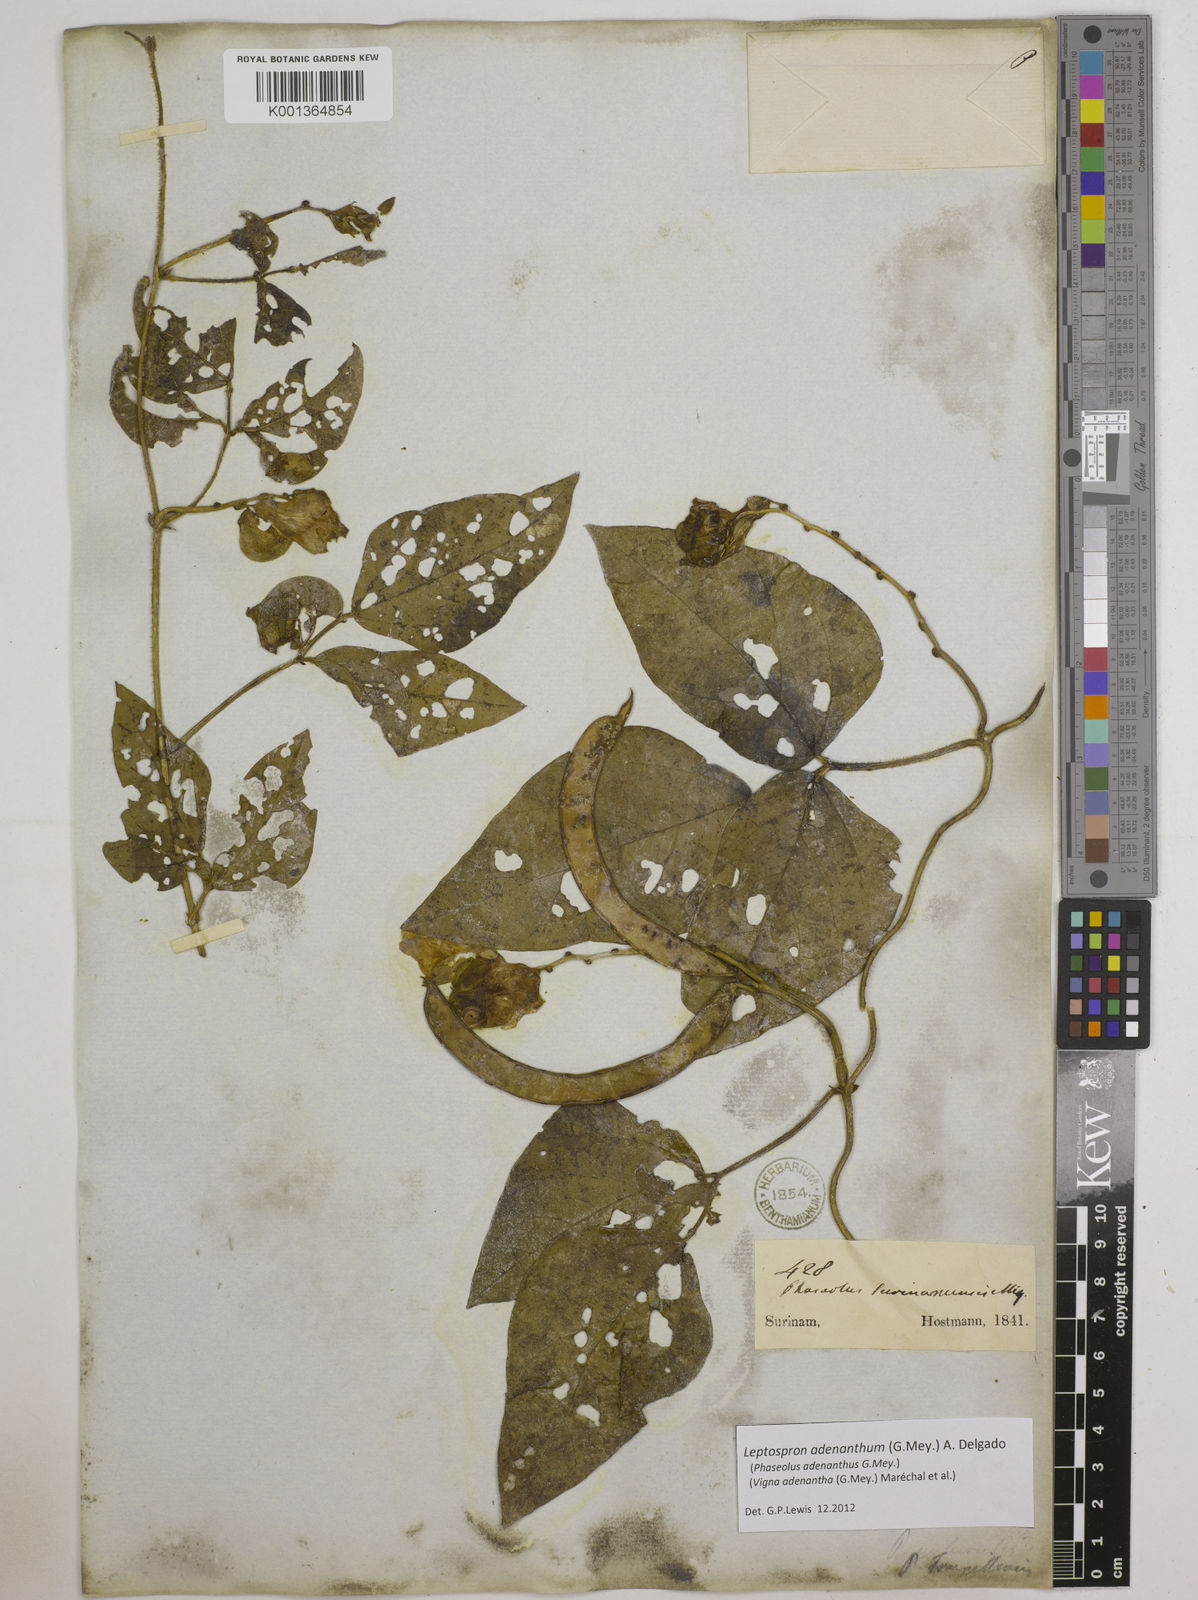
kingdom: Plantae
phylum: Tracheophyta
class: Magnoliopsida
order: Fabales
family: Fabaceae
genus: Leptospron
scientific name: Leptospron adenanthum
